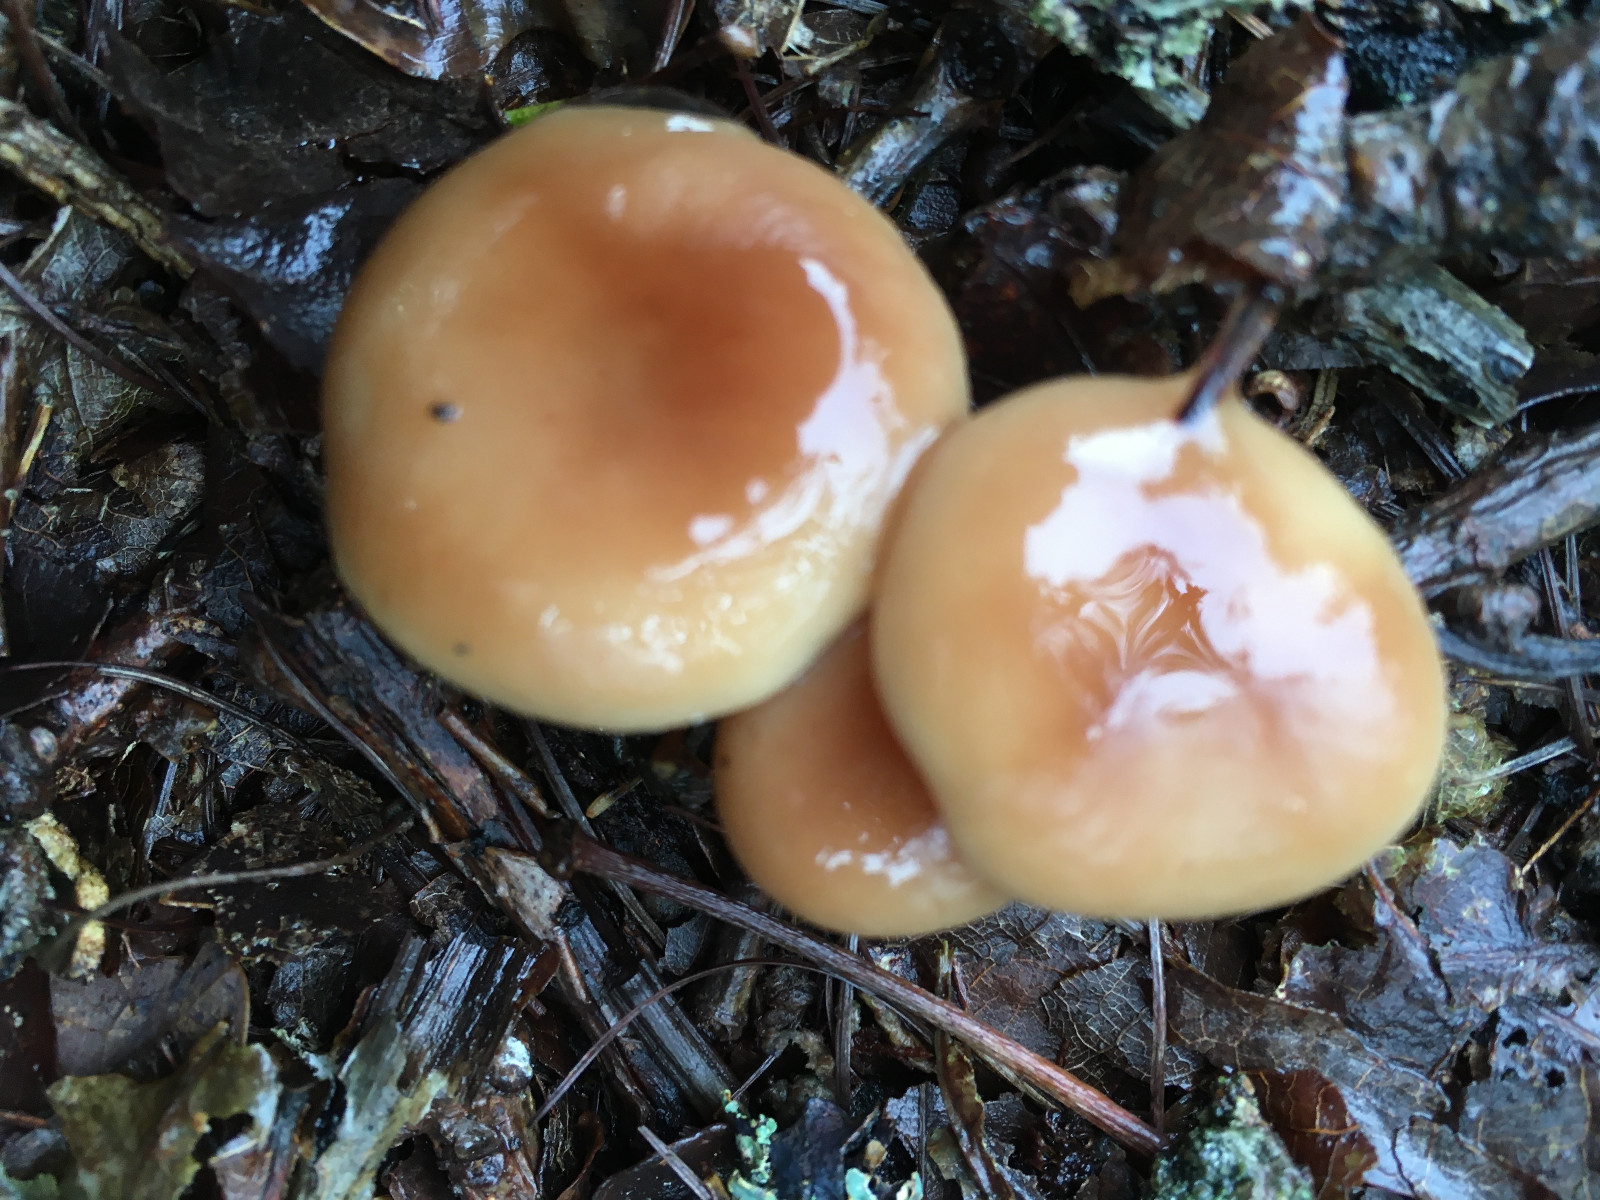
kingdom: Fungi
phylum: Basidiomycota
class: Agaricomycetes
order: Agaricales
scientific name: Agaricales
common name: champignonordenen
